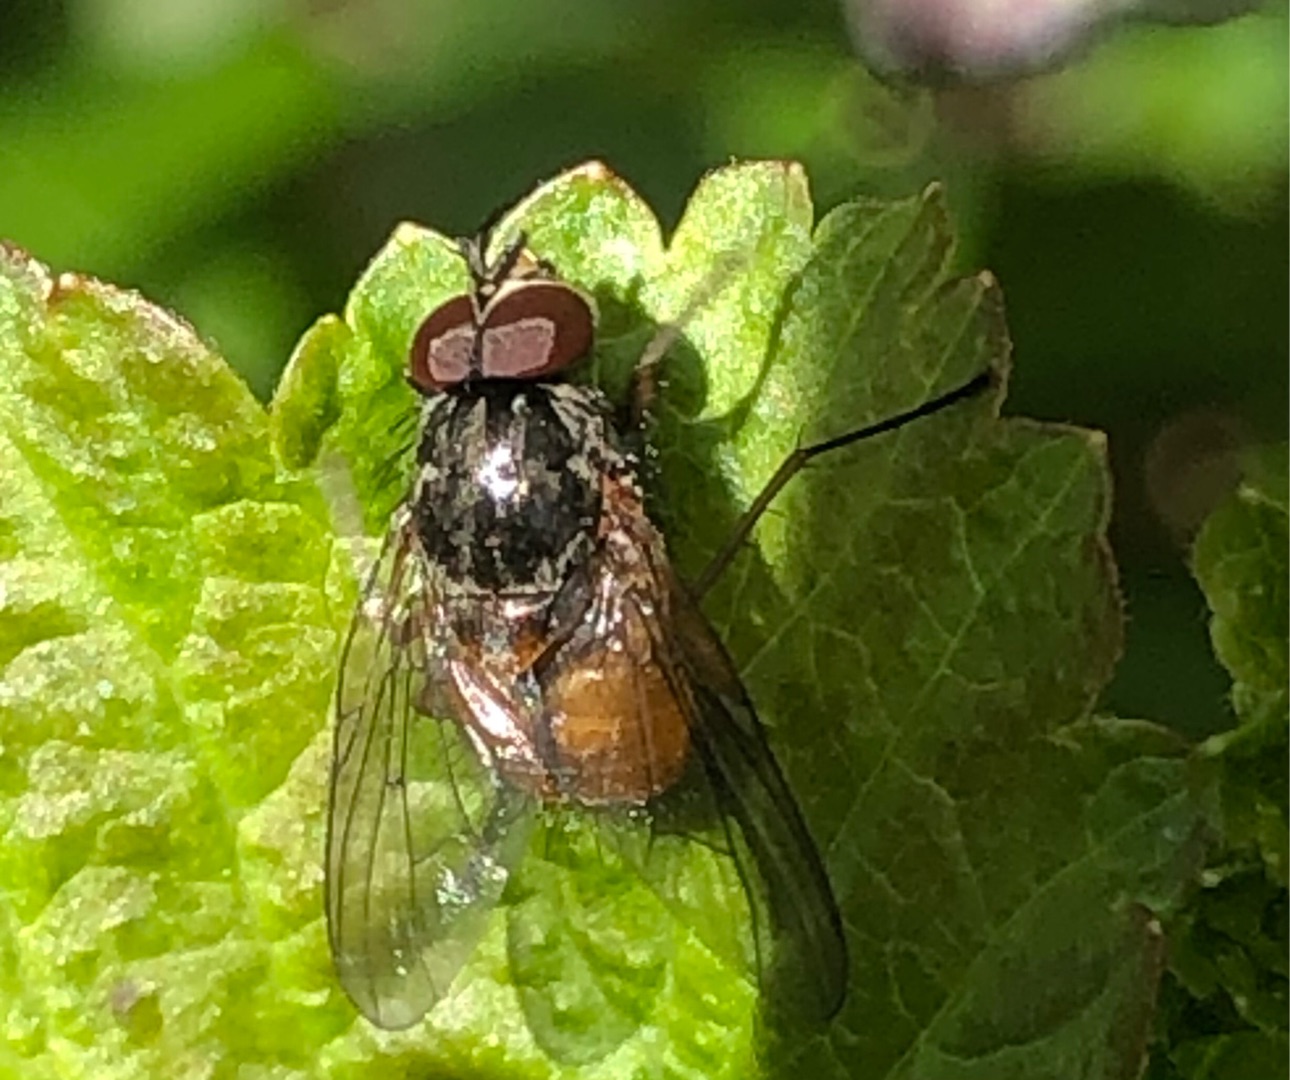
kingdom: Animalia
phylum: Arthropoda
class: Insecta
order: Diptera
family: Muscidae
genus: Phaonia
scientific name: Phaonia rufiventris
